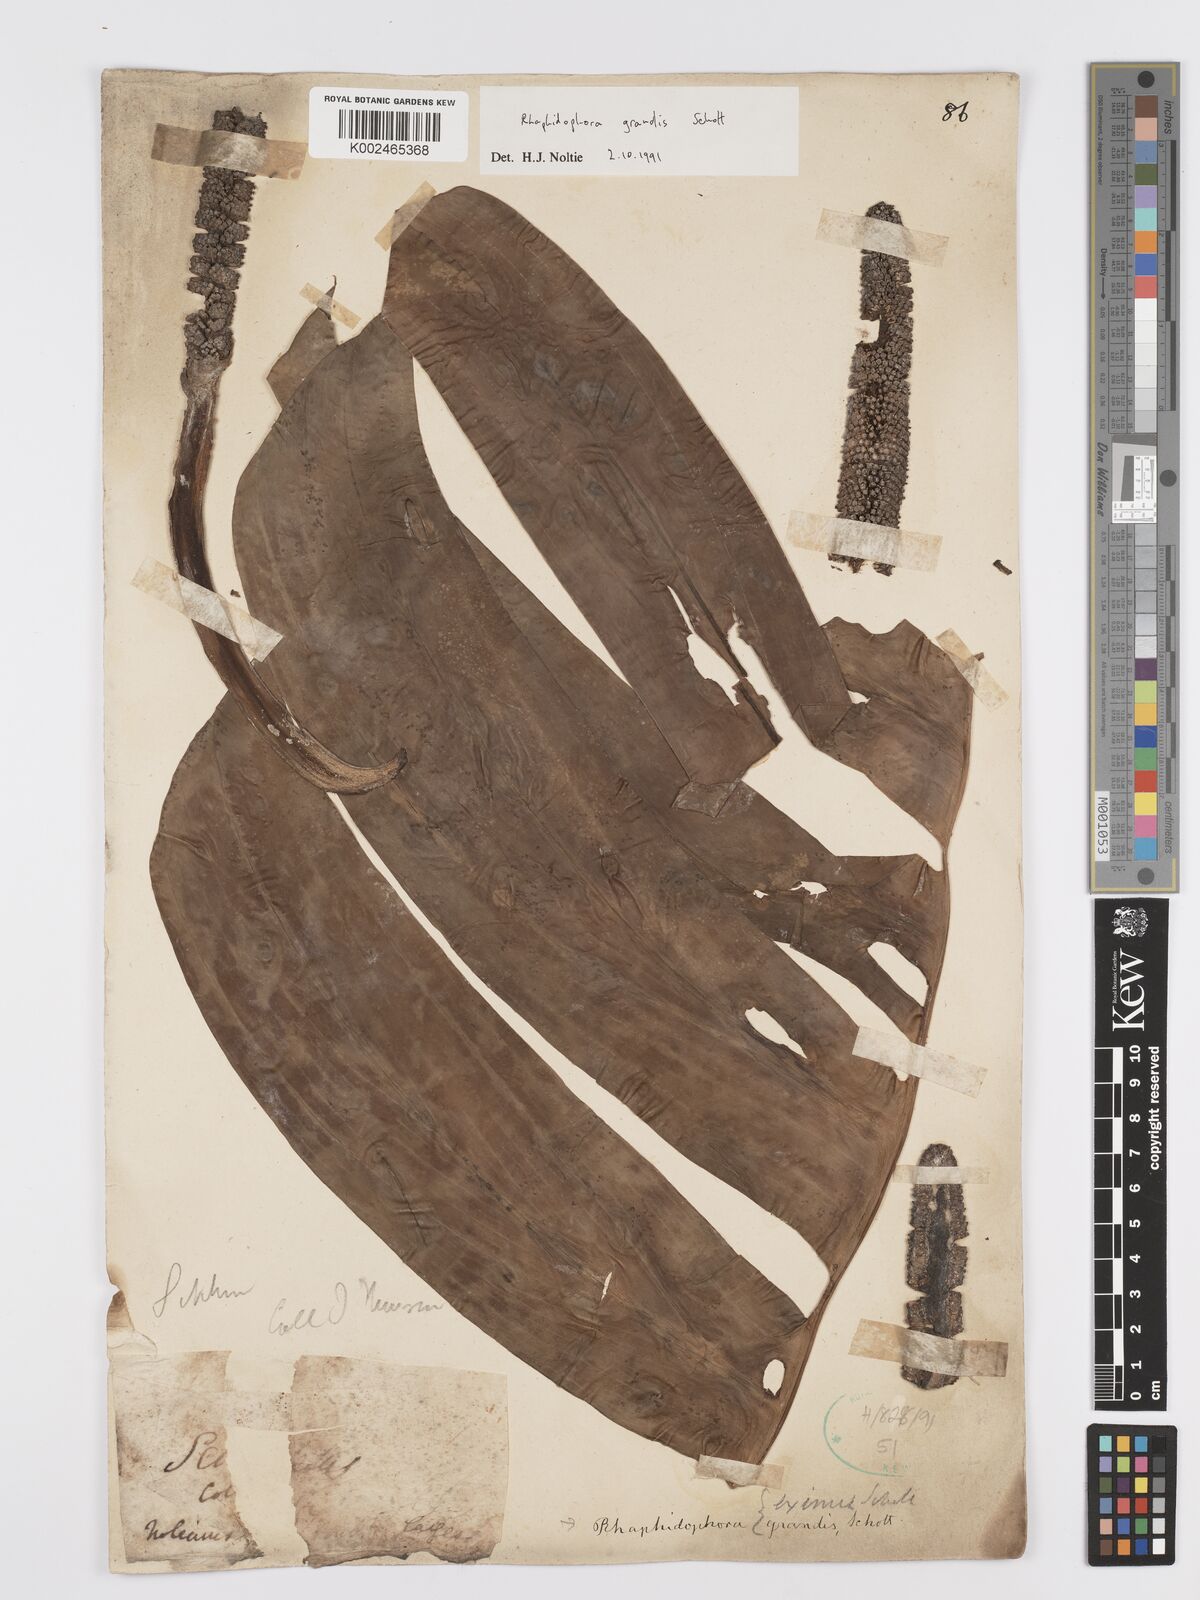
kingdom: Plantae
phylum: Tracheophyta
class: Liliopsida
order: Alismatales
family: Araceae
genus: Rhaphidophora
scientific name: Rhaphidophora decursiva
